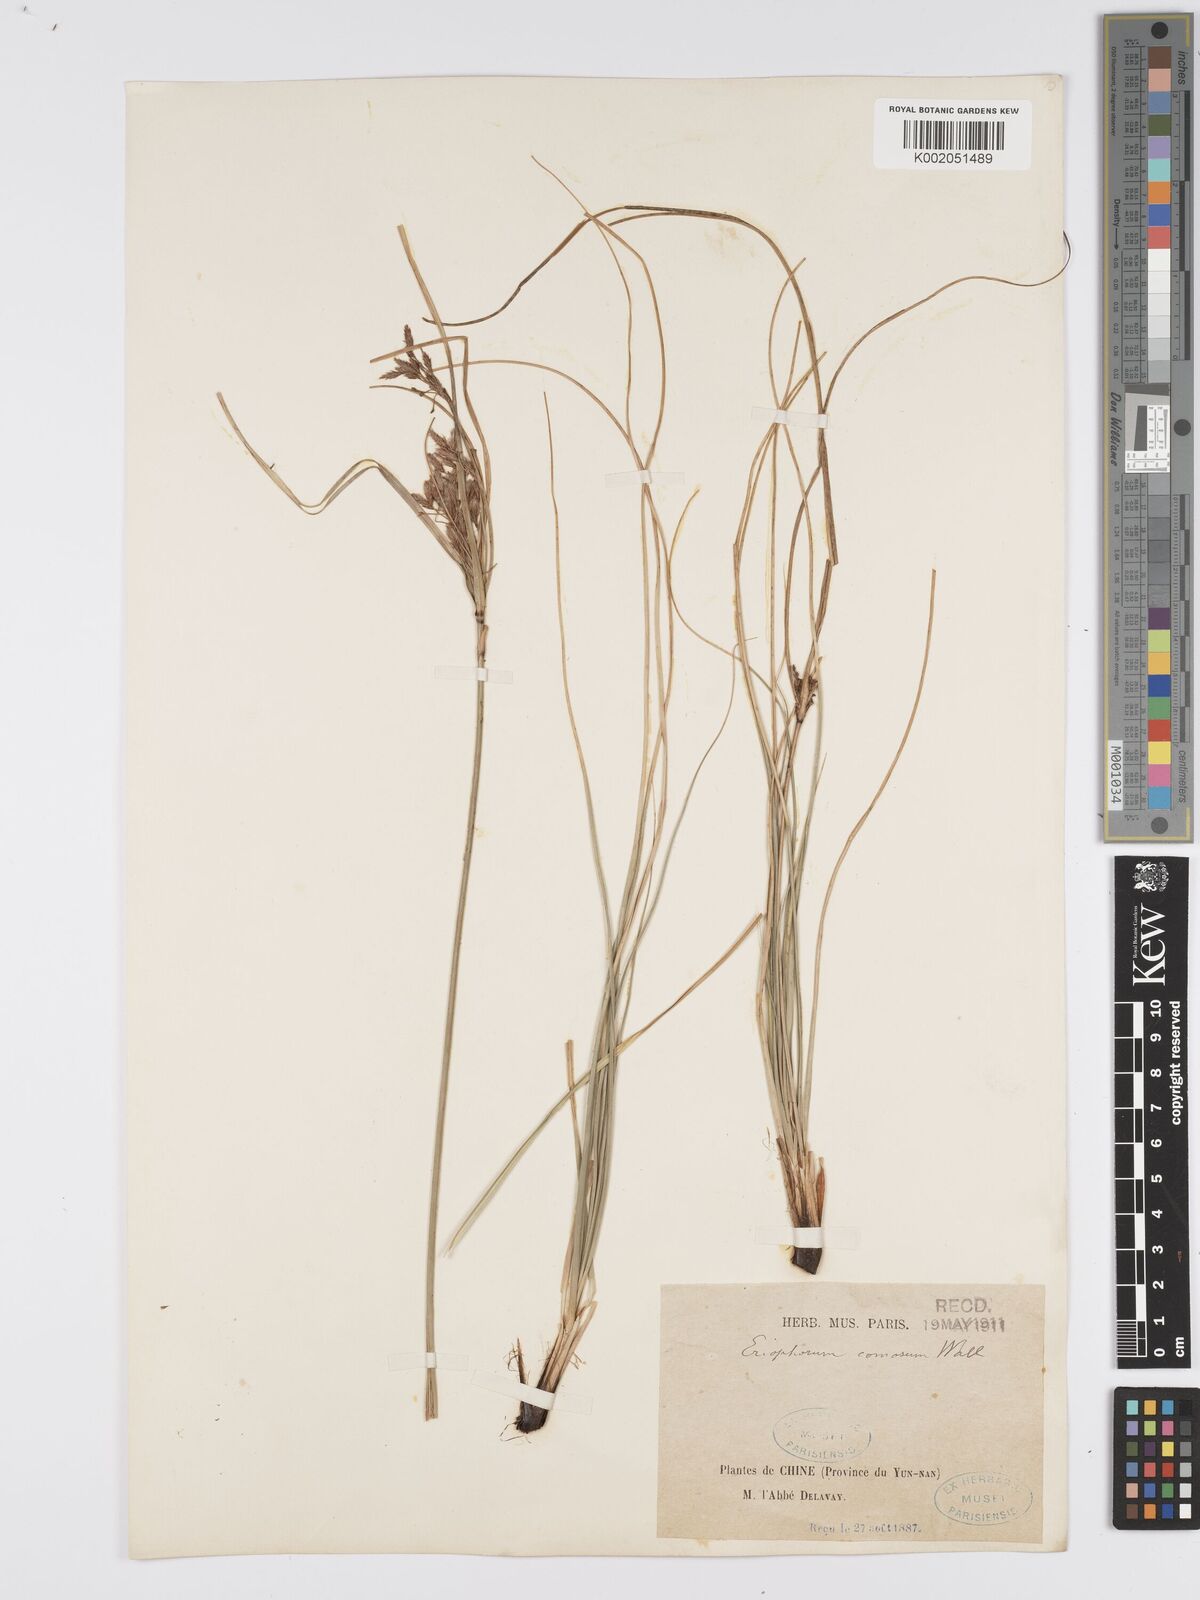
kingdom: Plantae
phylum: Tracheophyta
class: Liliopsida
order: Poales
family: Cyperaceae
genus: Erioscirpus
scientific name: Erioscirpus comosus
